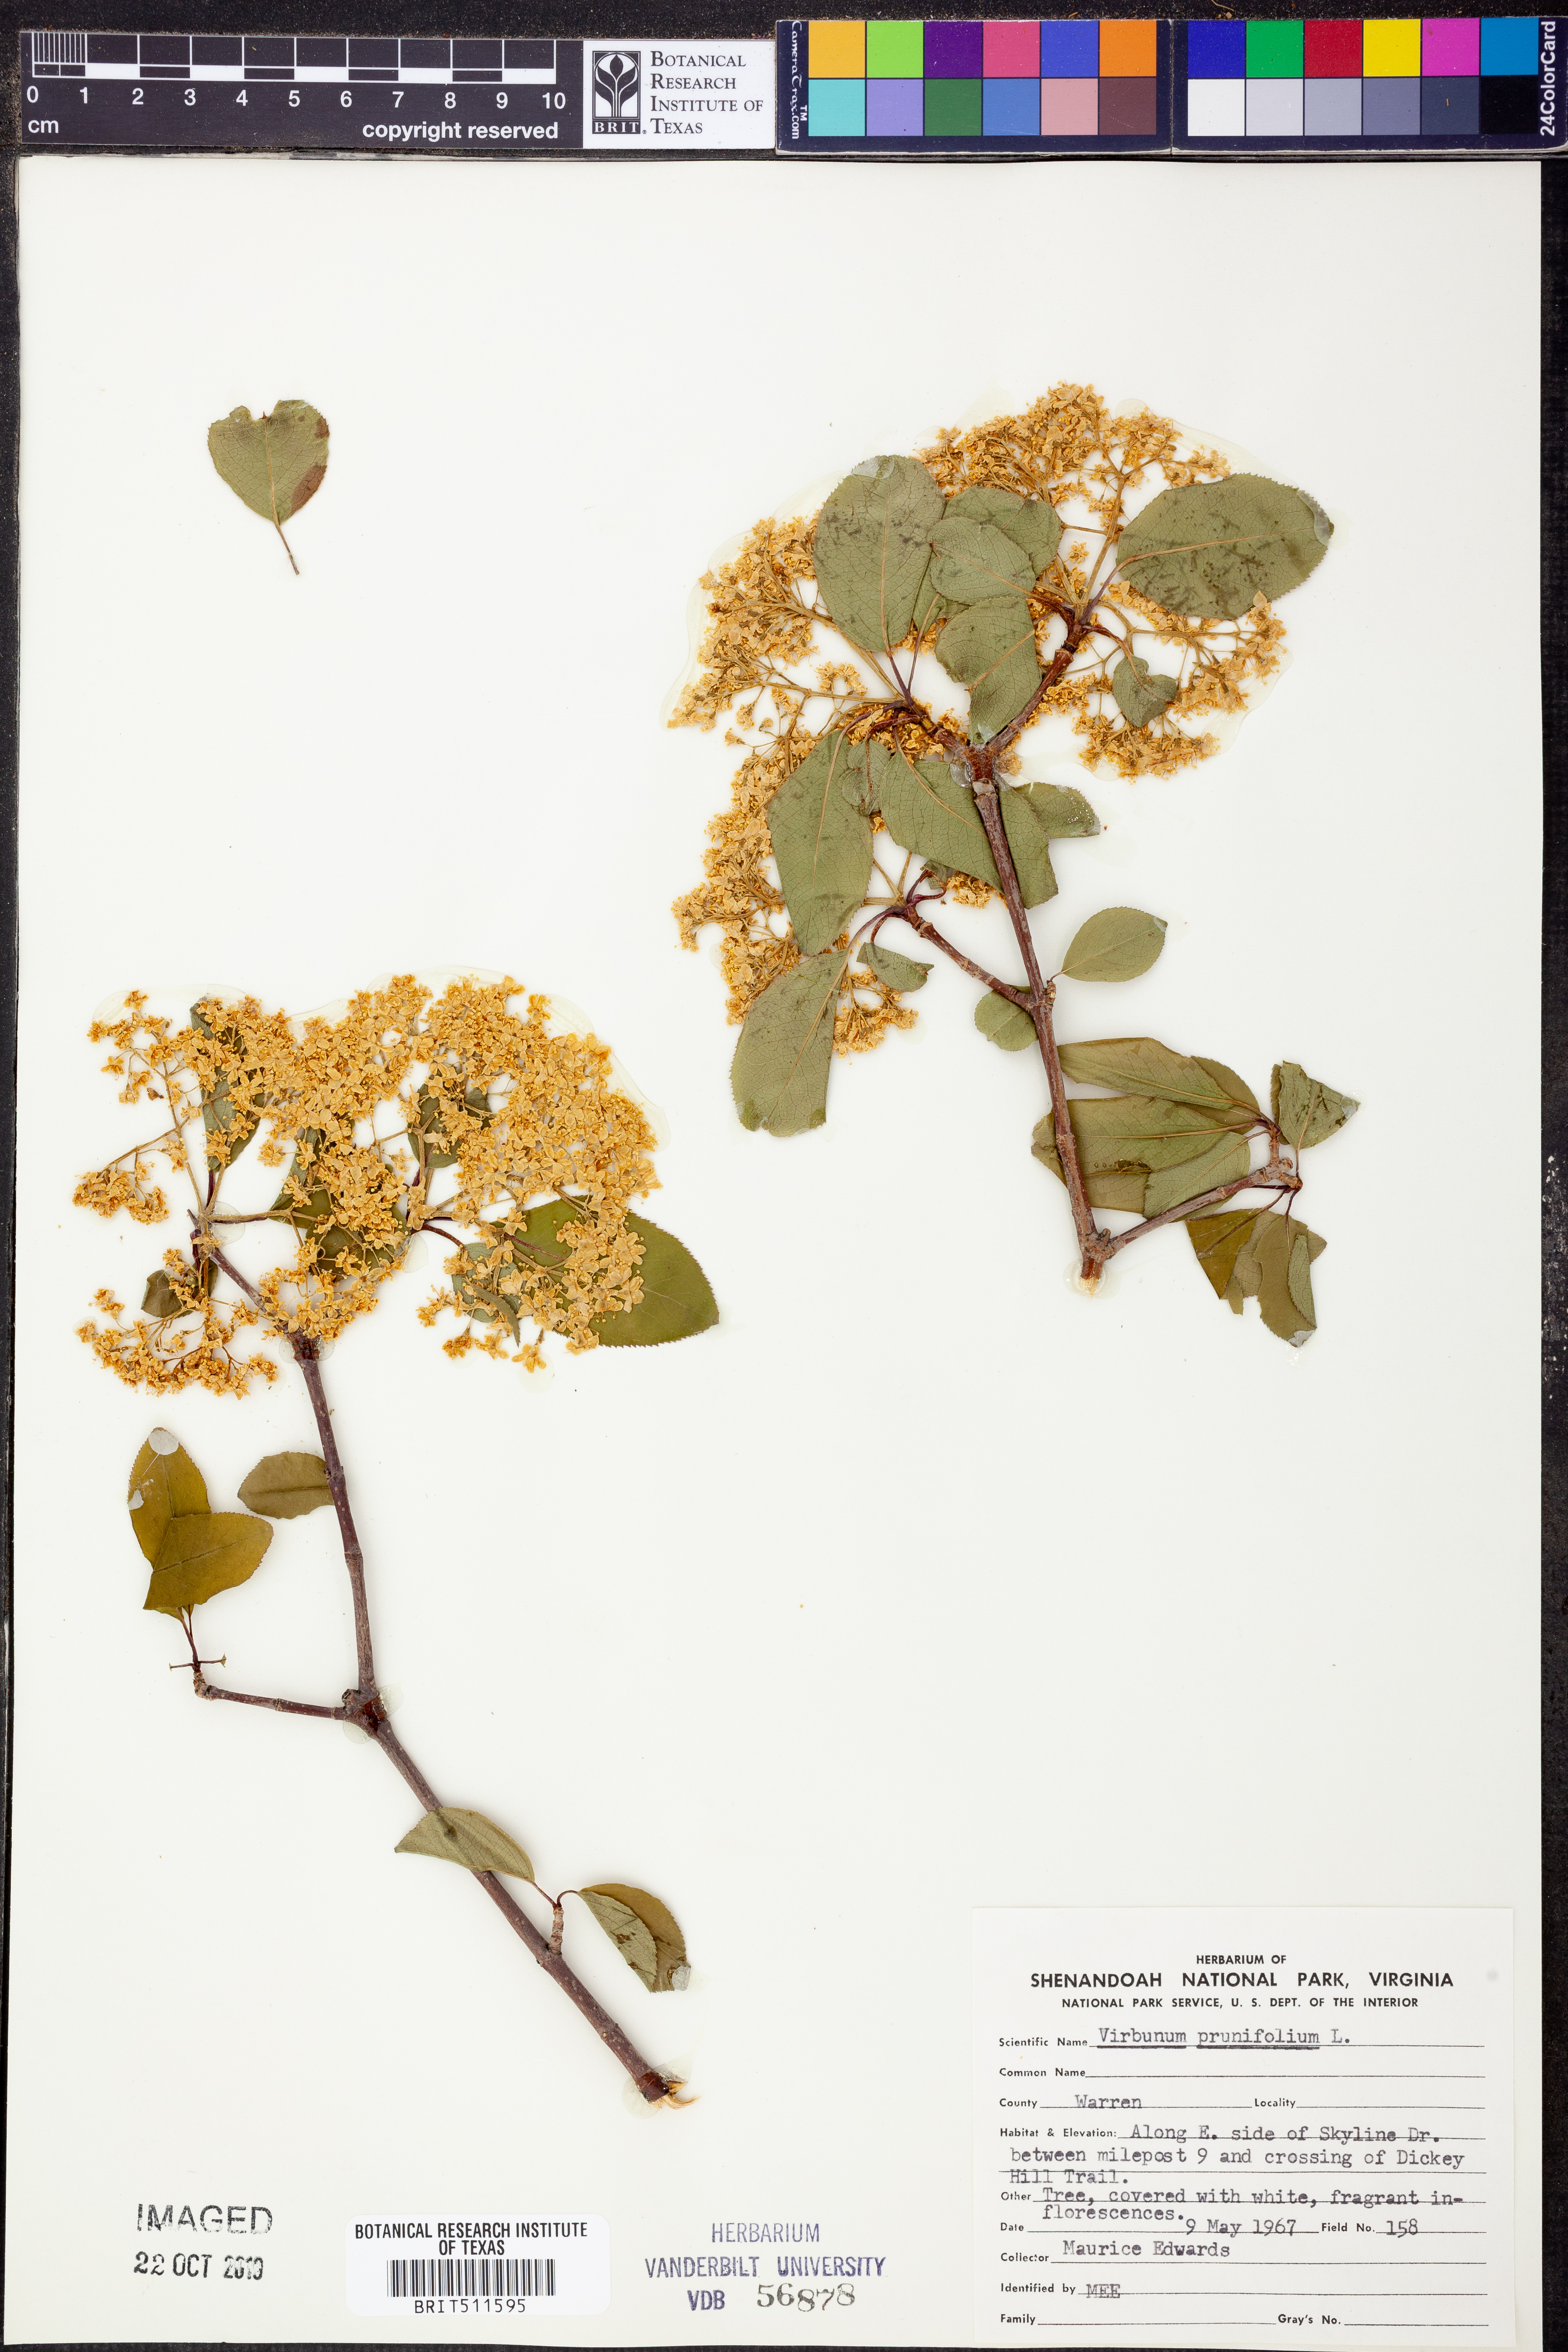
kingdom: Plantae
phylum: Tracheophyta
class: Magnoliopsida
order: Dipsacales
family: Viburnaceae
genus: Viburnum
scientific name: Viburnum prunifolium
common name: Black haw
